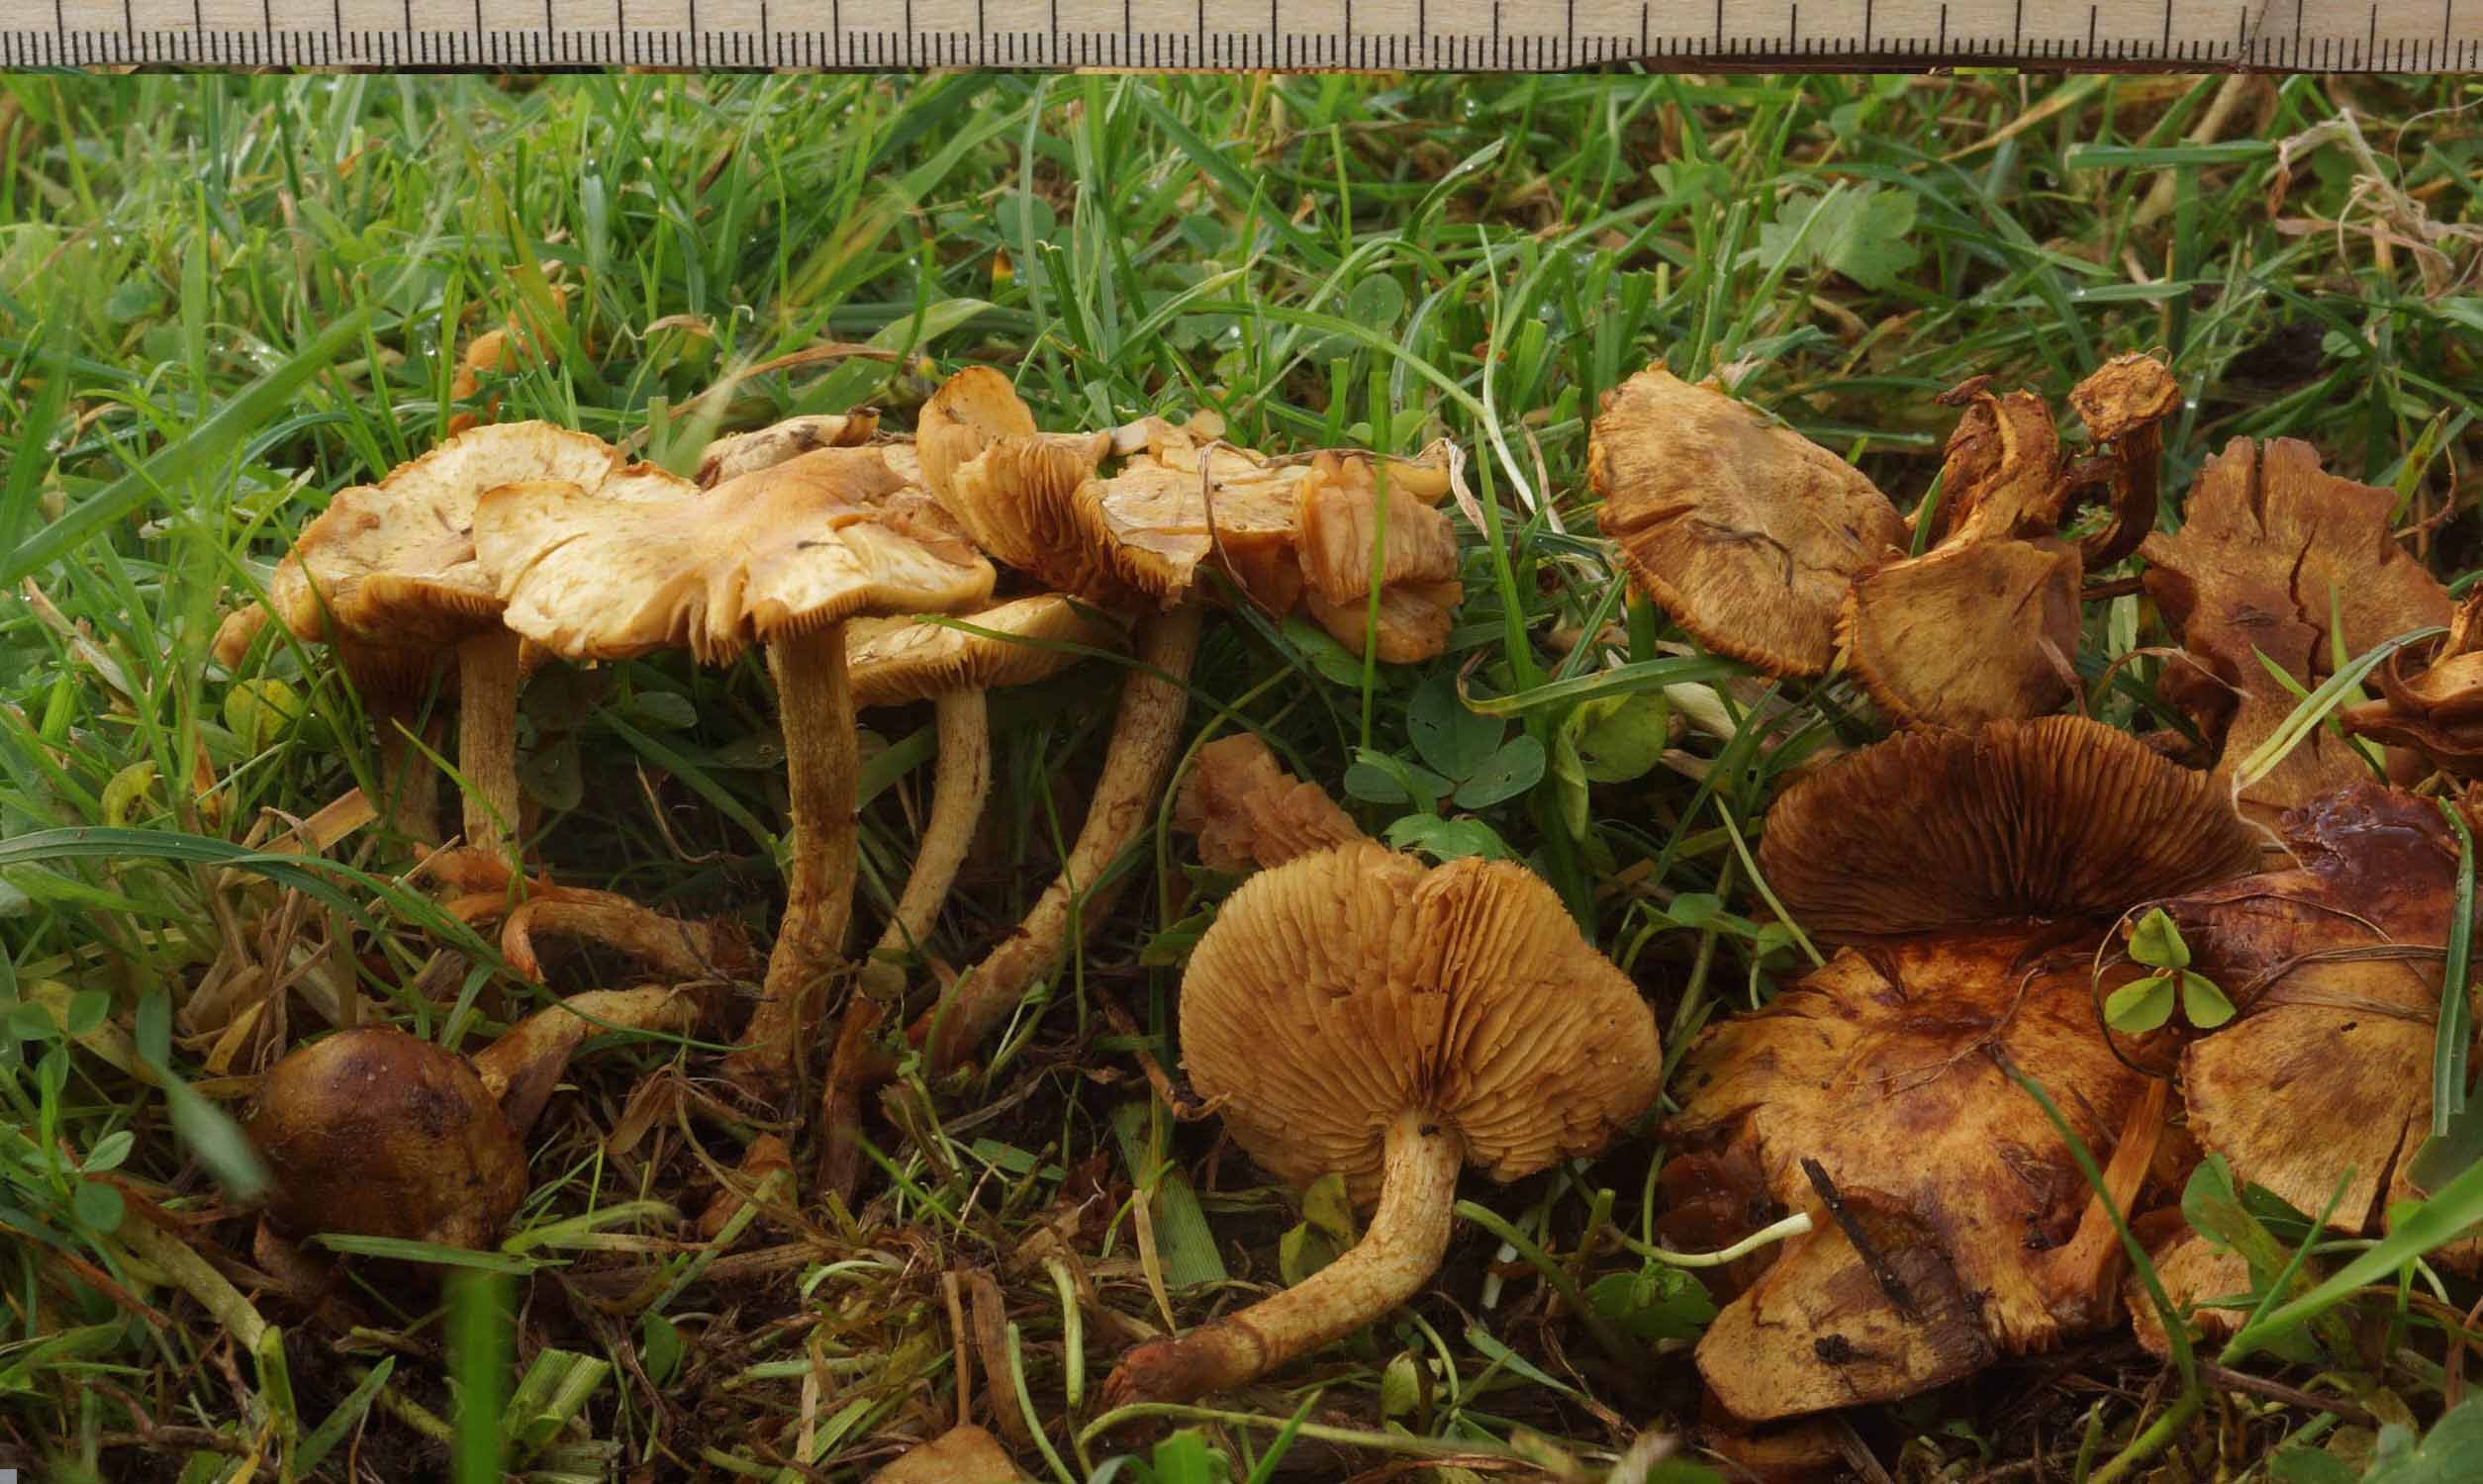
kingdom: Fungi
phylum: Basidiomycota
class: Agaricomycetes
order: Agaricales
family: Strophariaceae
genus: Pholiota
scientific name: Pholiota conissans
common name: pile-skælhat
